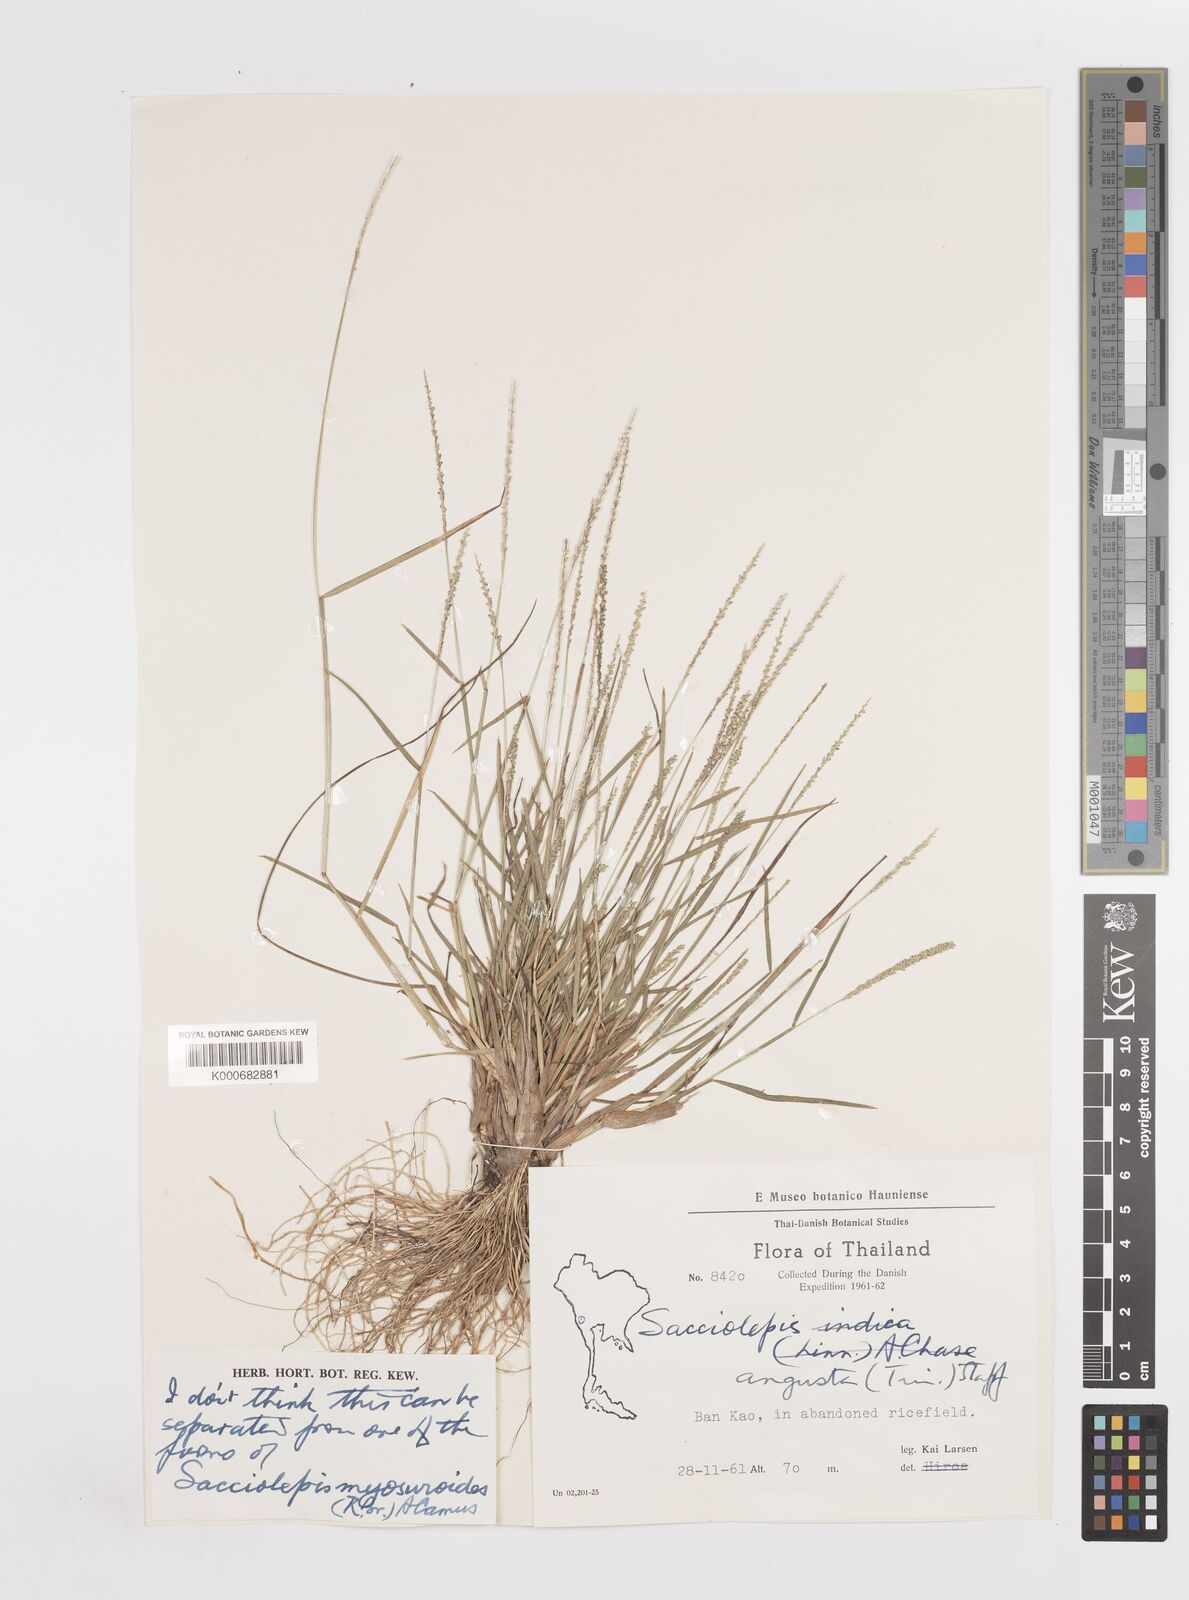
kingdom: Plantae
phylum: Tracheophyta
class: Liliopsida
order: Poales
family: Poaceae
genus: Sacciolepis
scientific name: Sacciolepis myosuroides
